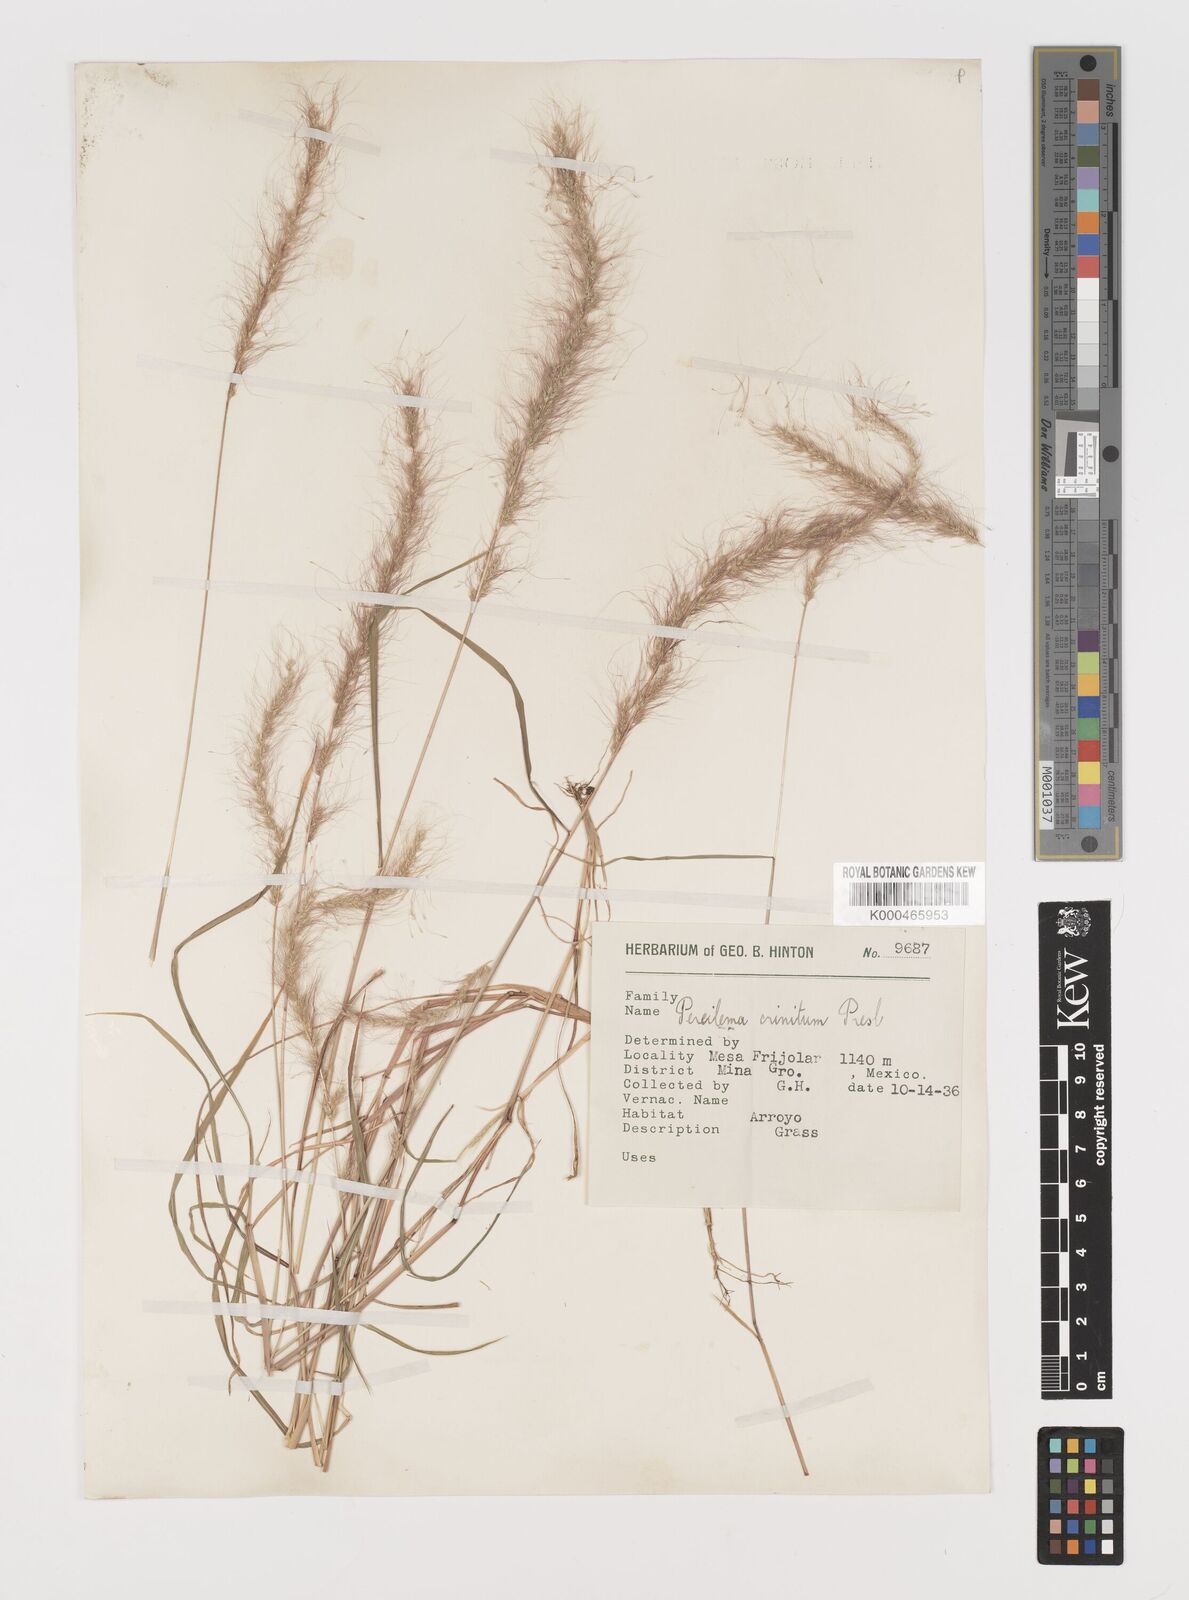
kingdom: Plantae
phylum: Tracheophyta
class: Liliopsida
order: Poales
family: Poaceae
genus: Muhlenbergia
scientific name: Muhlenbergia pereilema
